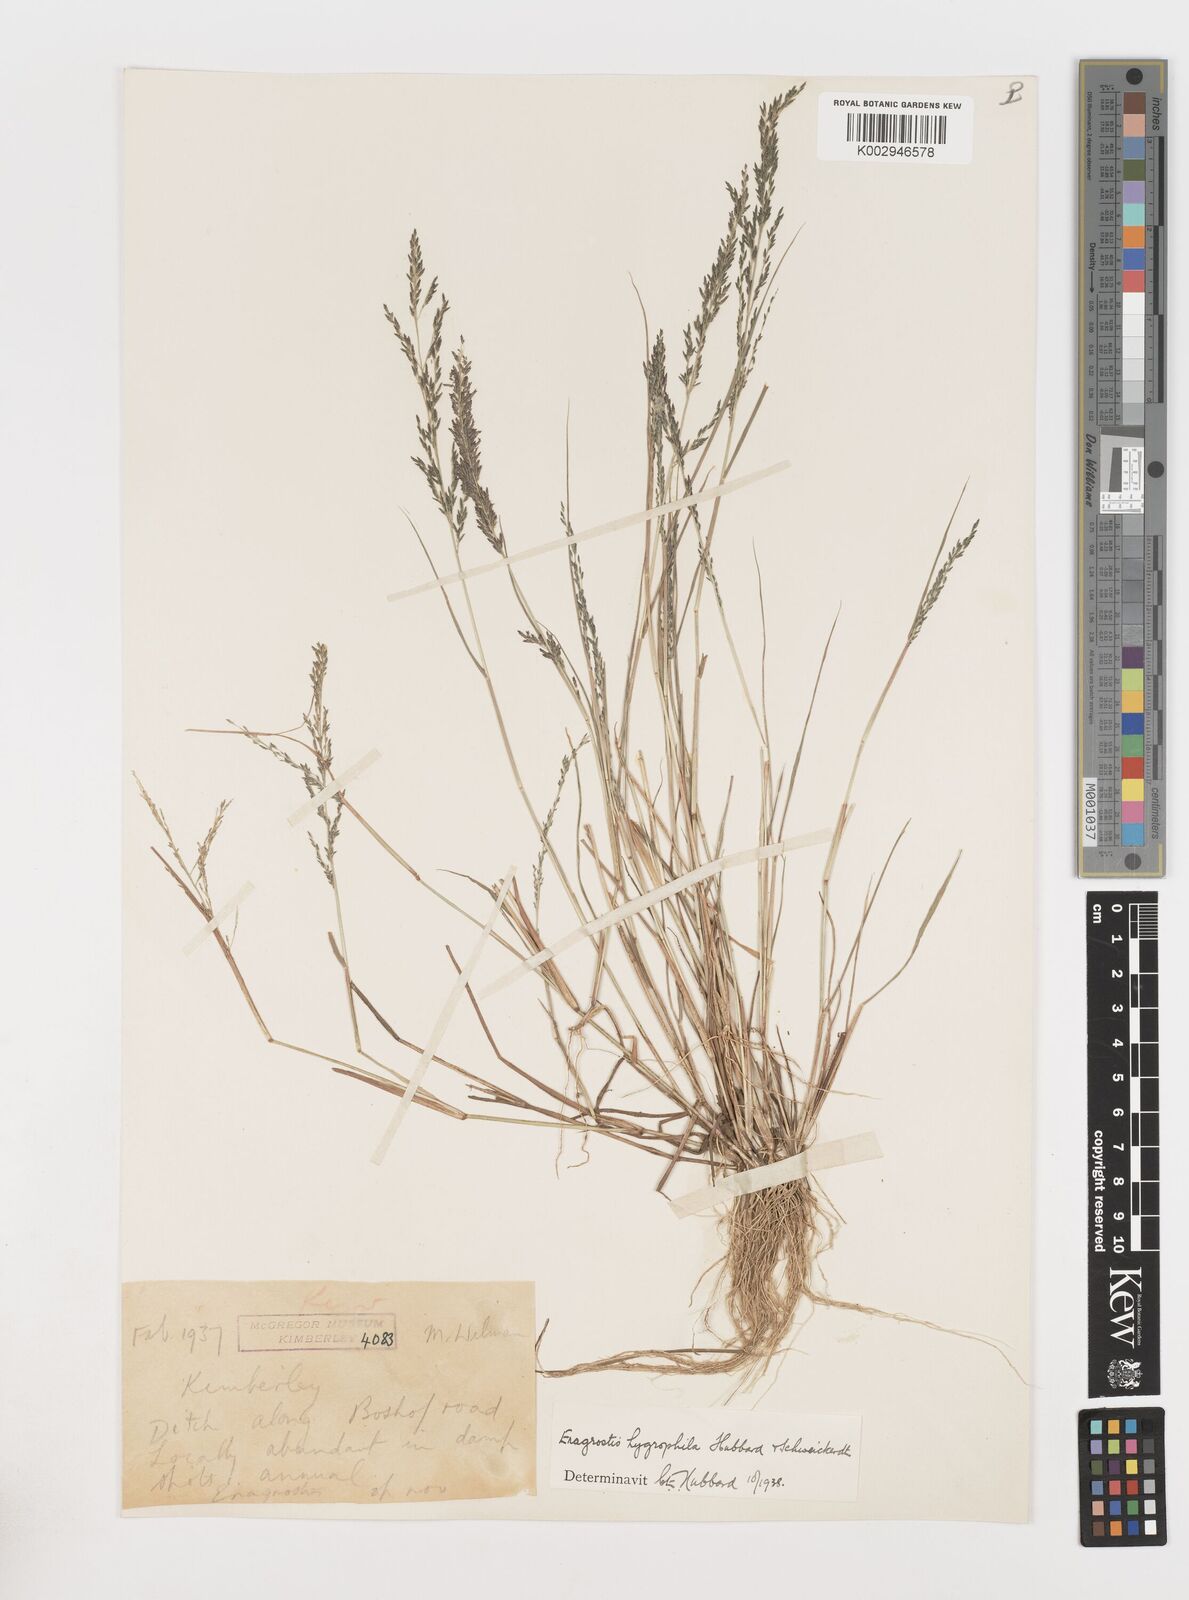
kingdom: Plantae
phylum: Tracheophyta
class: Liliopsida
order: Poales
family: Poaceae
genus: Eragrostis
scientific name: Eragrostis homomalla
